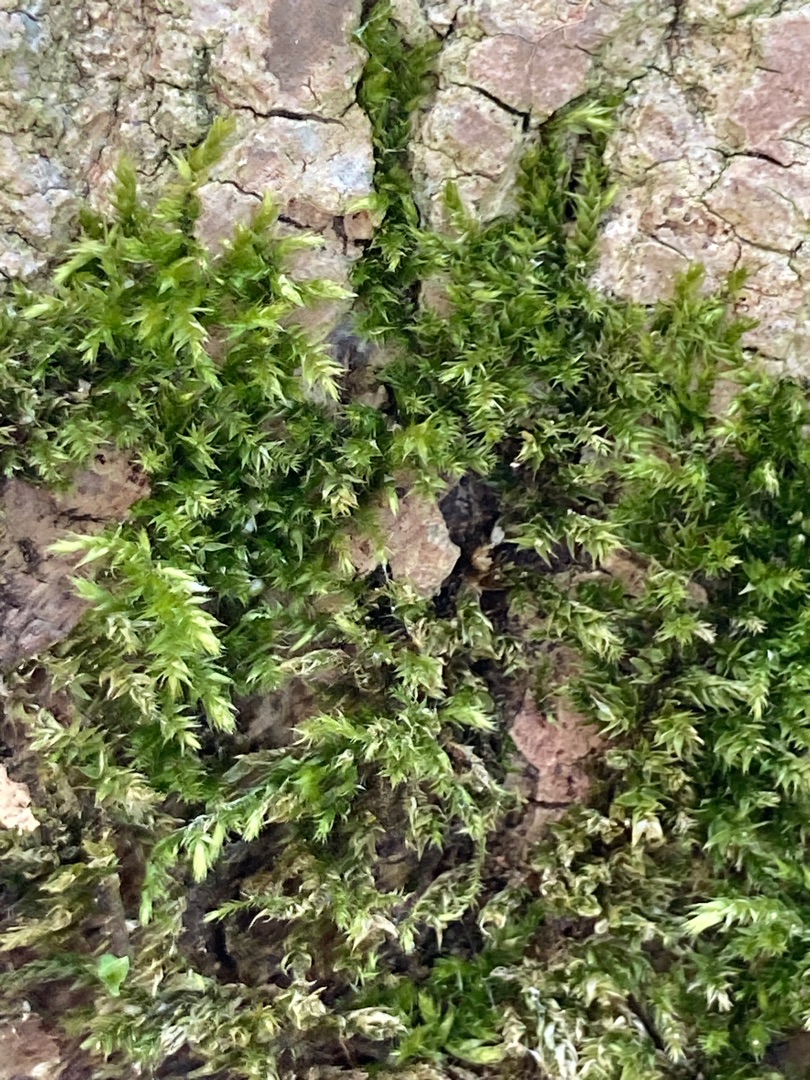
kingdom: Plantae
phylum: Bryophyta
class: Bryopsida
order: Hypnales
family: Brachytheciaceae
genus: Brachythecium
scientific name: Brachythecium rutabulum
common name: Almindelig kortkapsel
